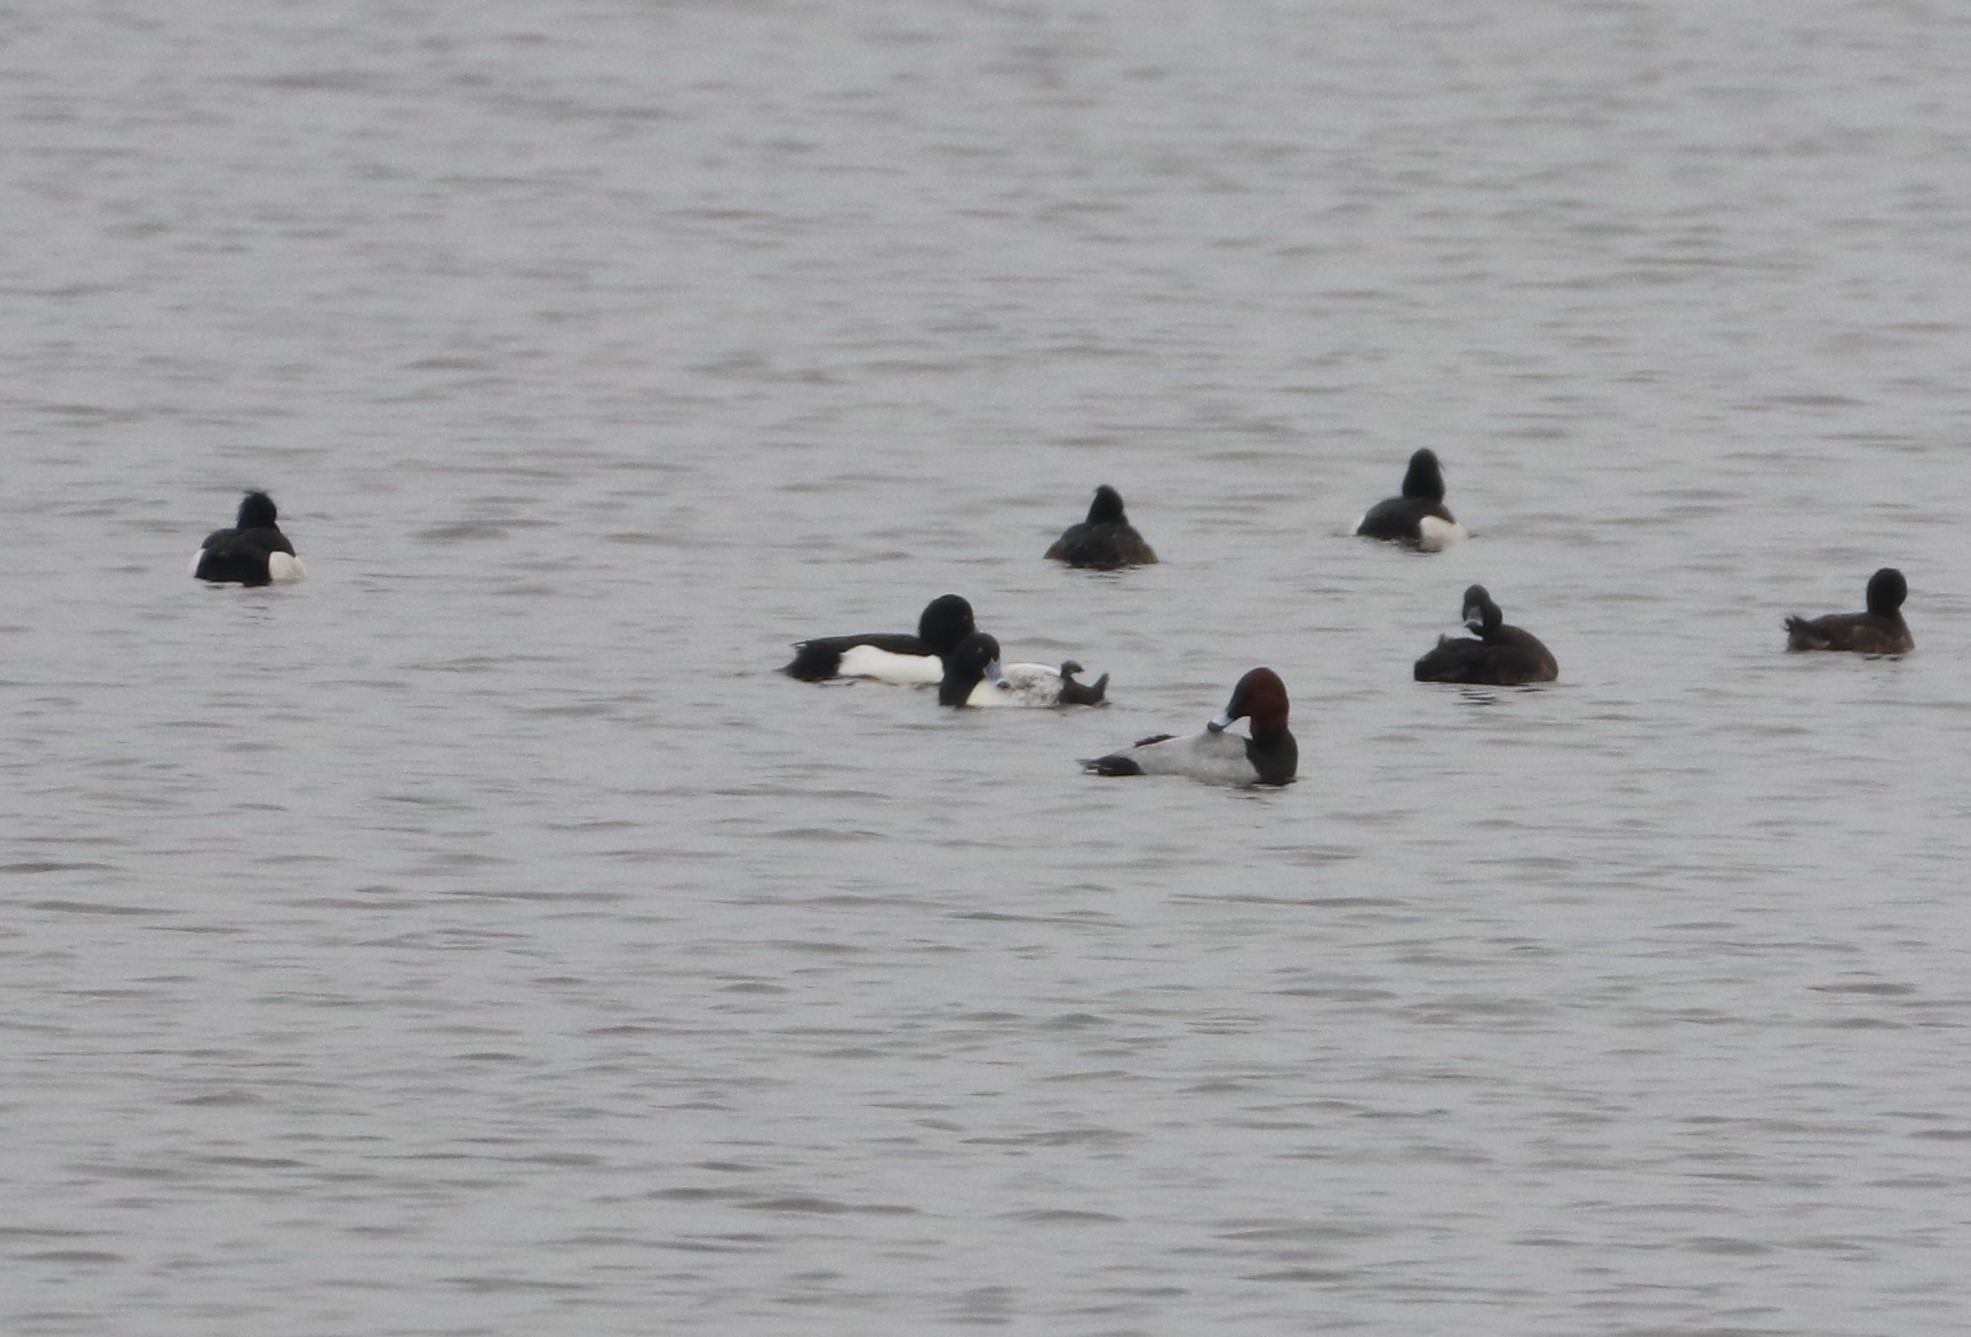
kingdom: Animalia
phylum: Chordata
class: Aves
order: Anseriformes
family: Anatidae
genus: Aythya
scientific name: Aythya fuligula
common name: Troldand
